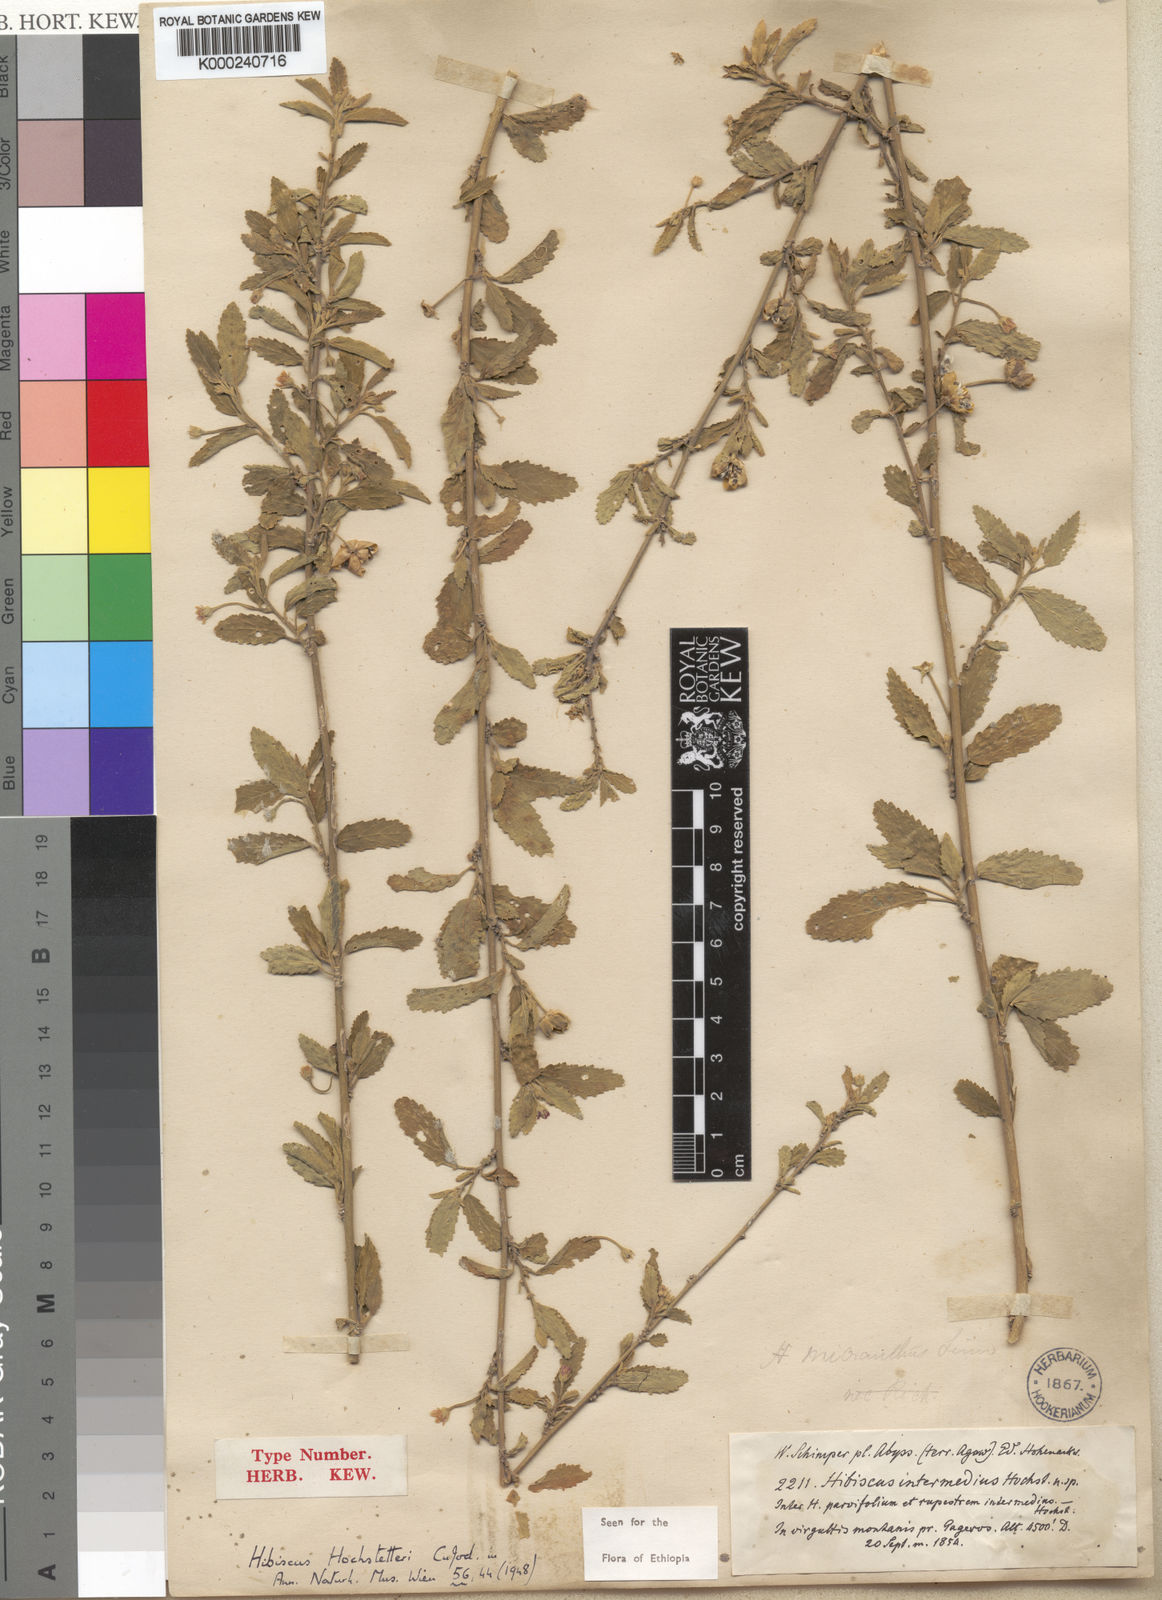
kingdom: Plantae
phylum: Tracheophyta
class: Magnoliopsida
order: Malvales
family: Malvaceae
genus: Hibiscus
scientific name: Hibiscus hochstetteri
